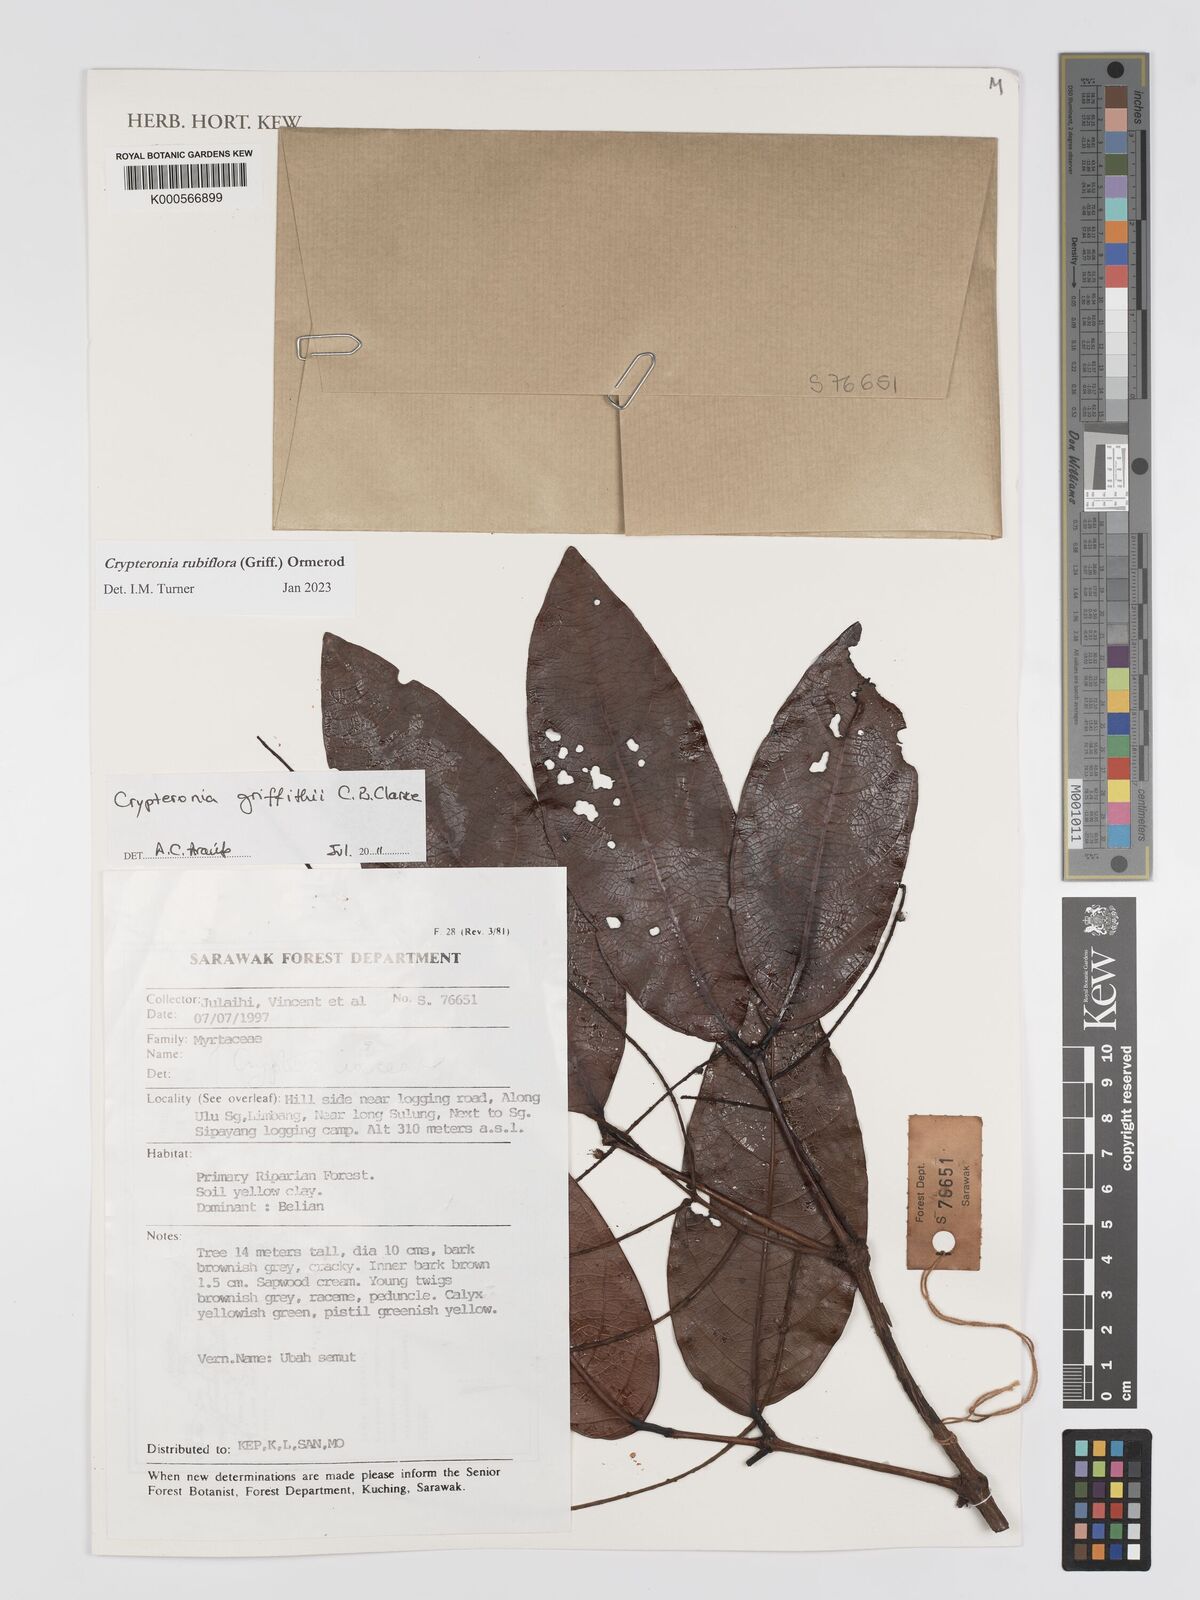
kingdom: Plantae
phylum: Tracheophyta
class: Magnoliopsida
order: Myrtales
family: Crypteroniaceae
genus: Crypteronia
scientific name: Crypteronia griffithii
